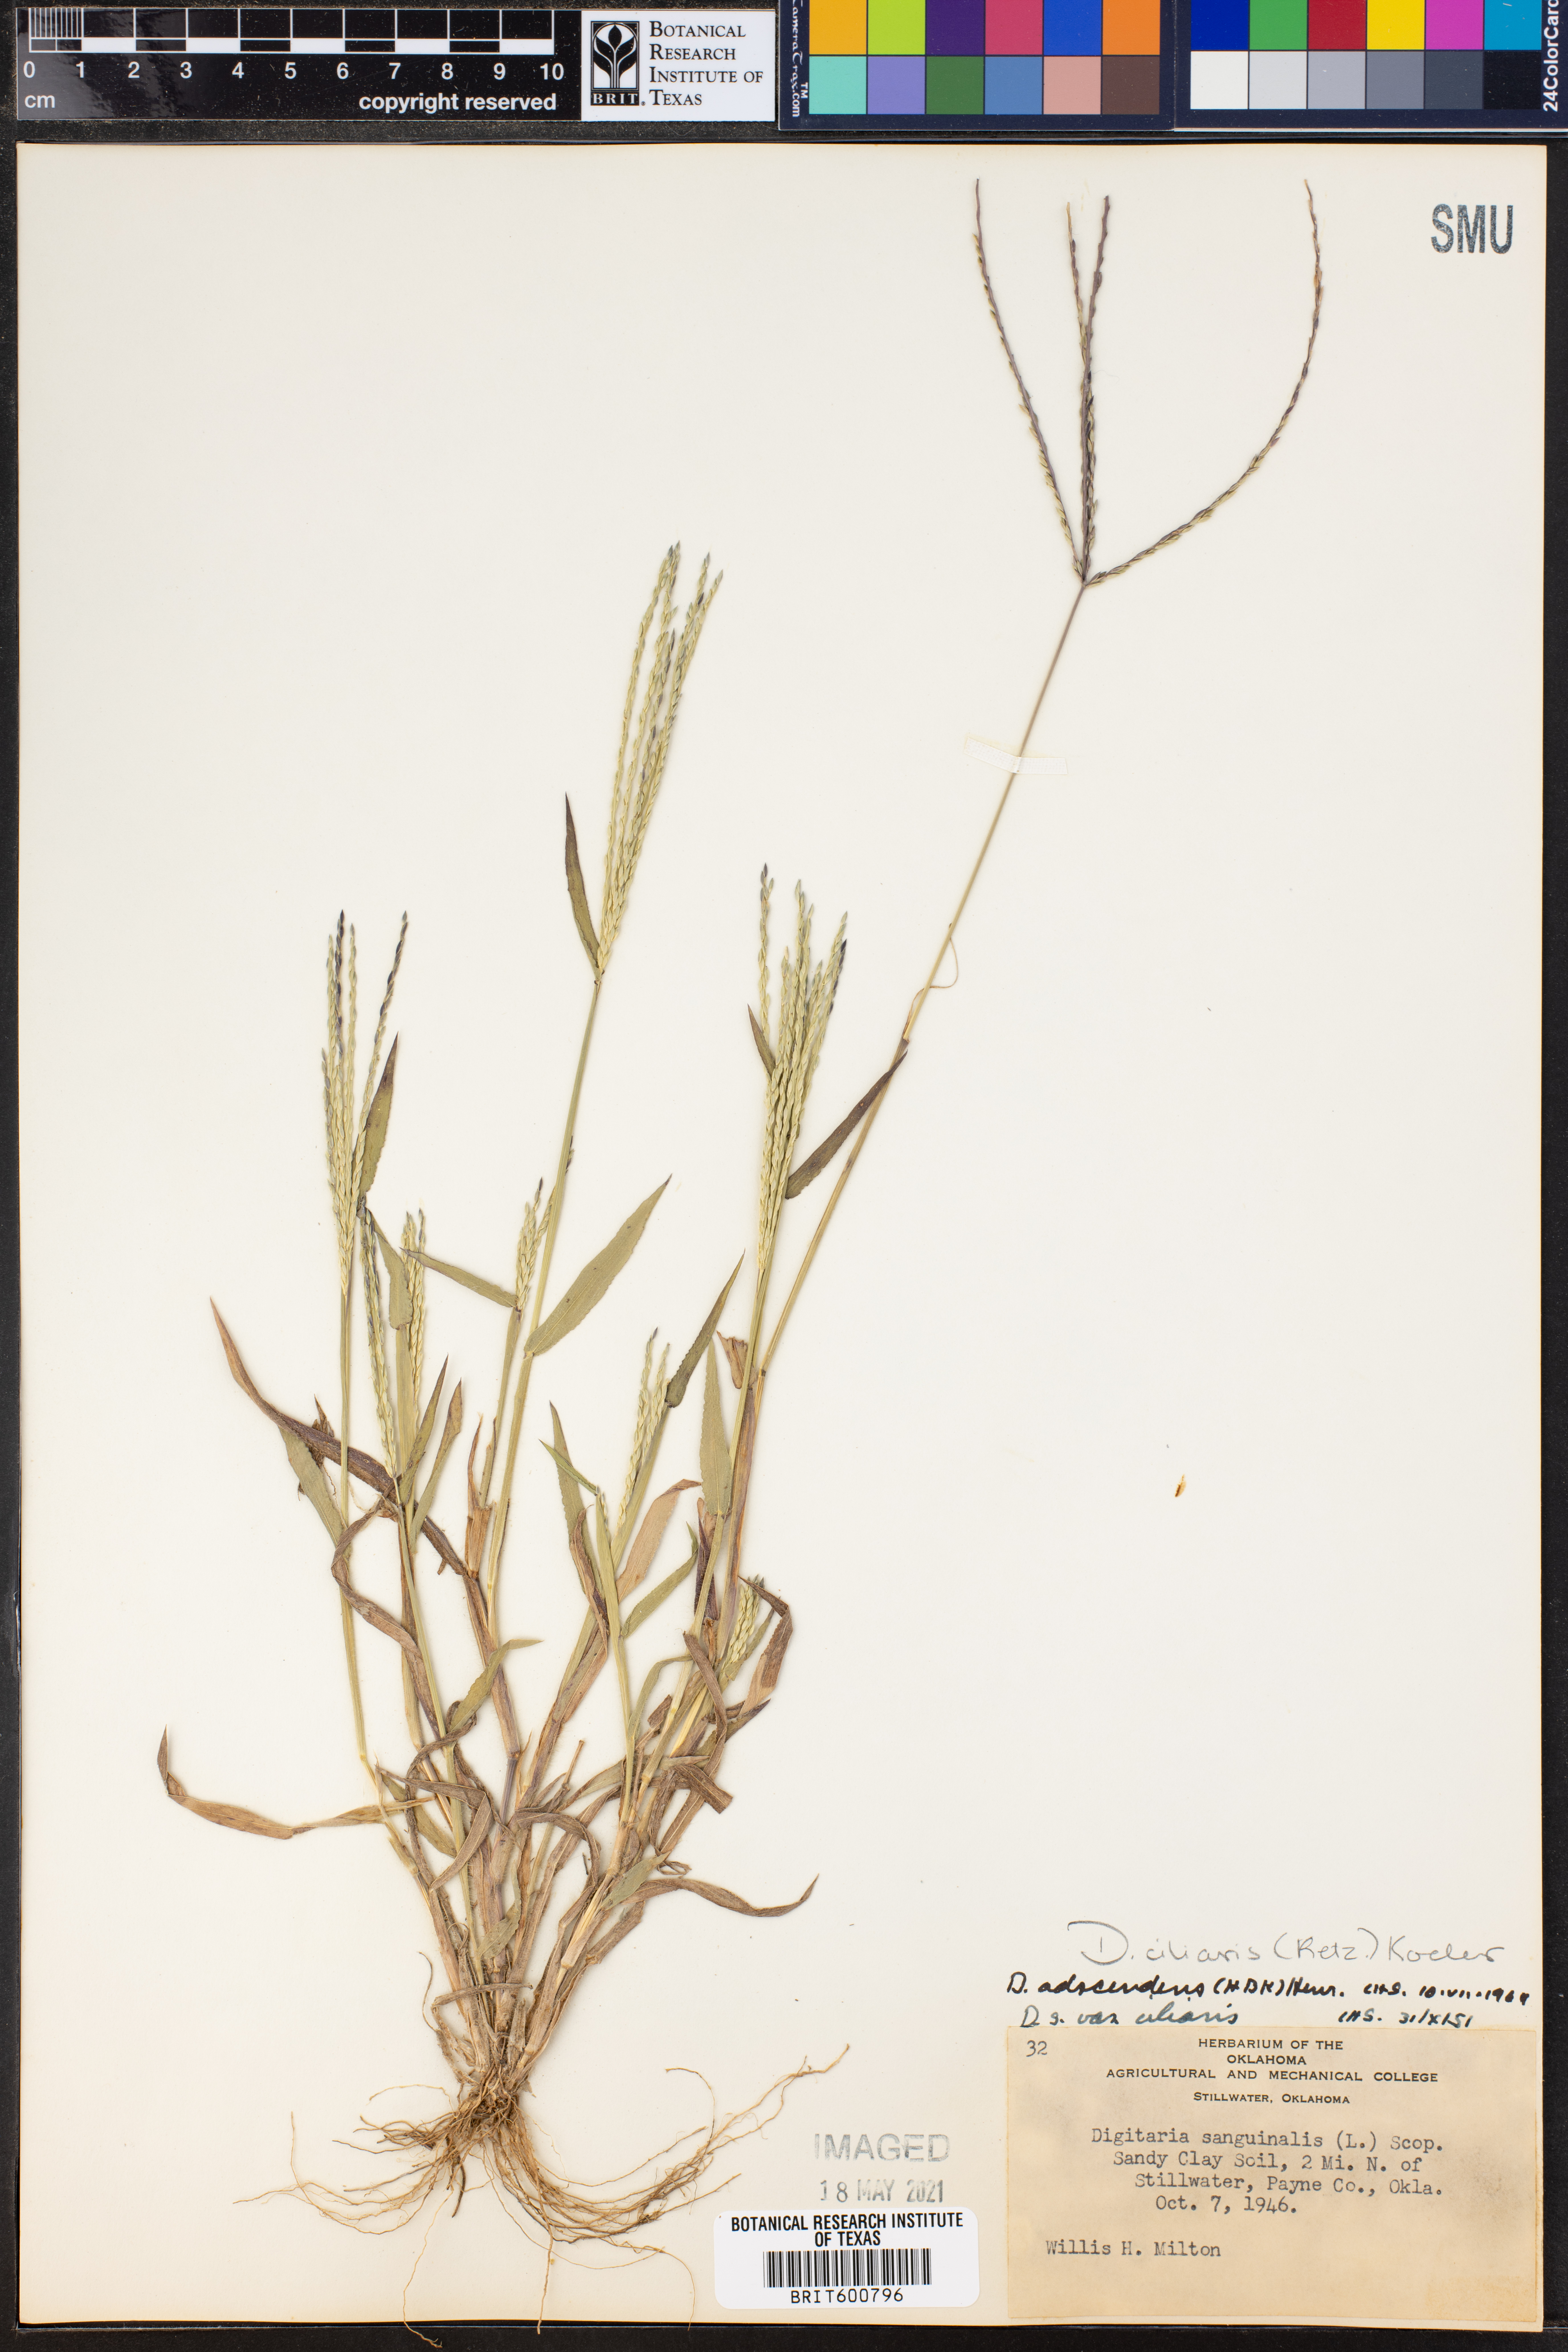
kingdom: Plantae
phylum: Tracheophyta
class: Liliopsida
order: Poales
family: Poaceae
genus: Digitaria
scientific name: Digitaria ciliaris
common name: Tropical finger-grass
